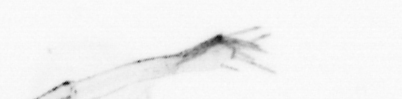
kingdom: Animalia
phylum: Arthropoda
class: Malacostraca
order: Decapoda
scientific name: Decapoda
